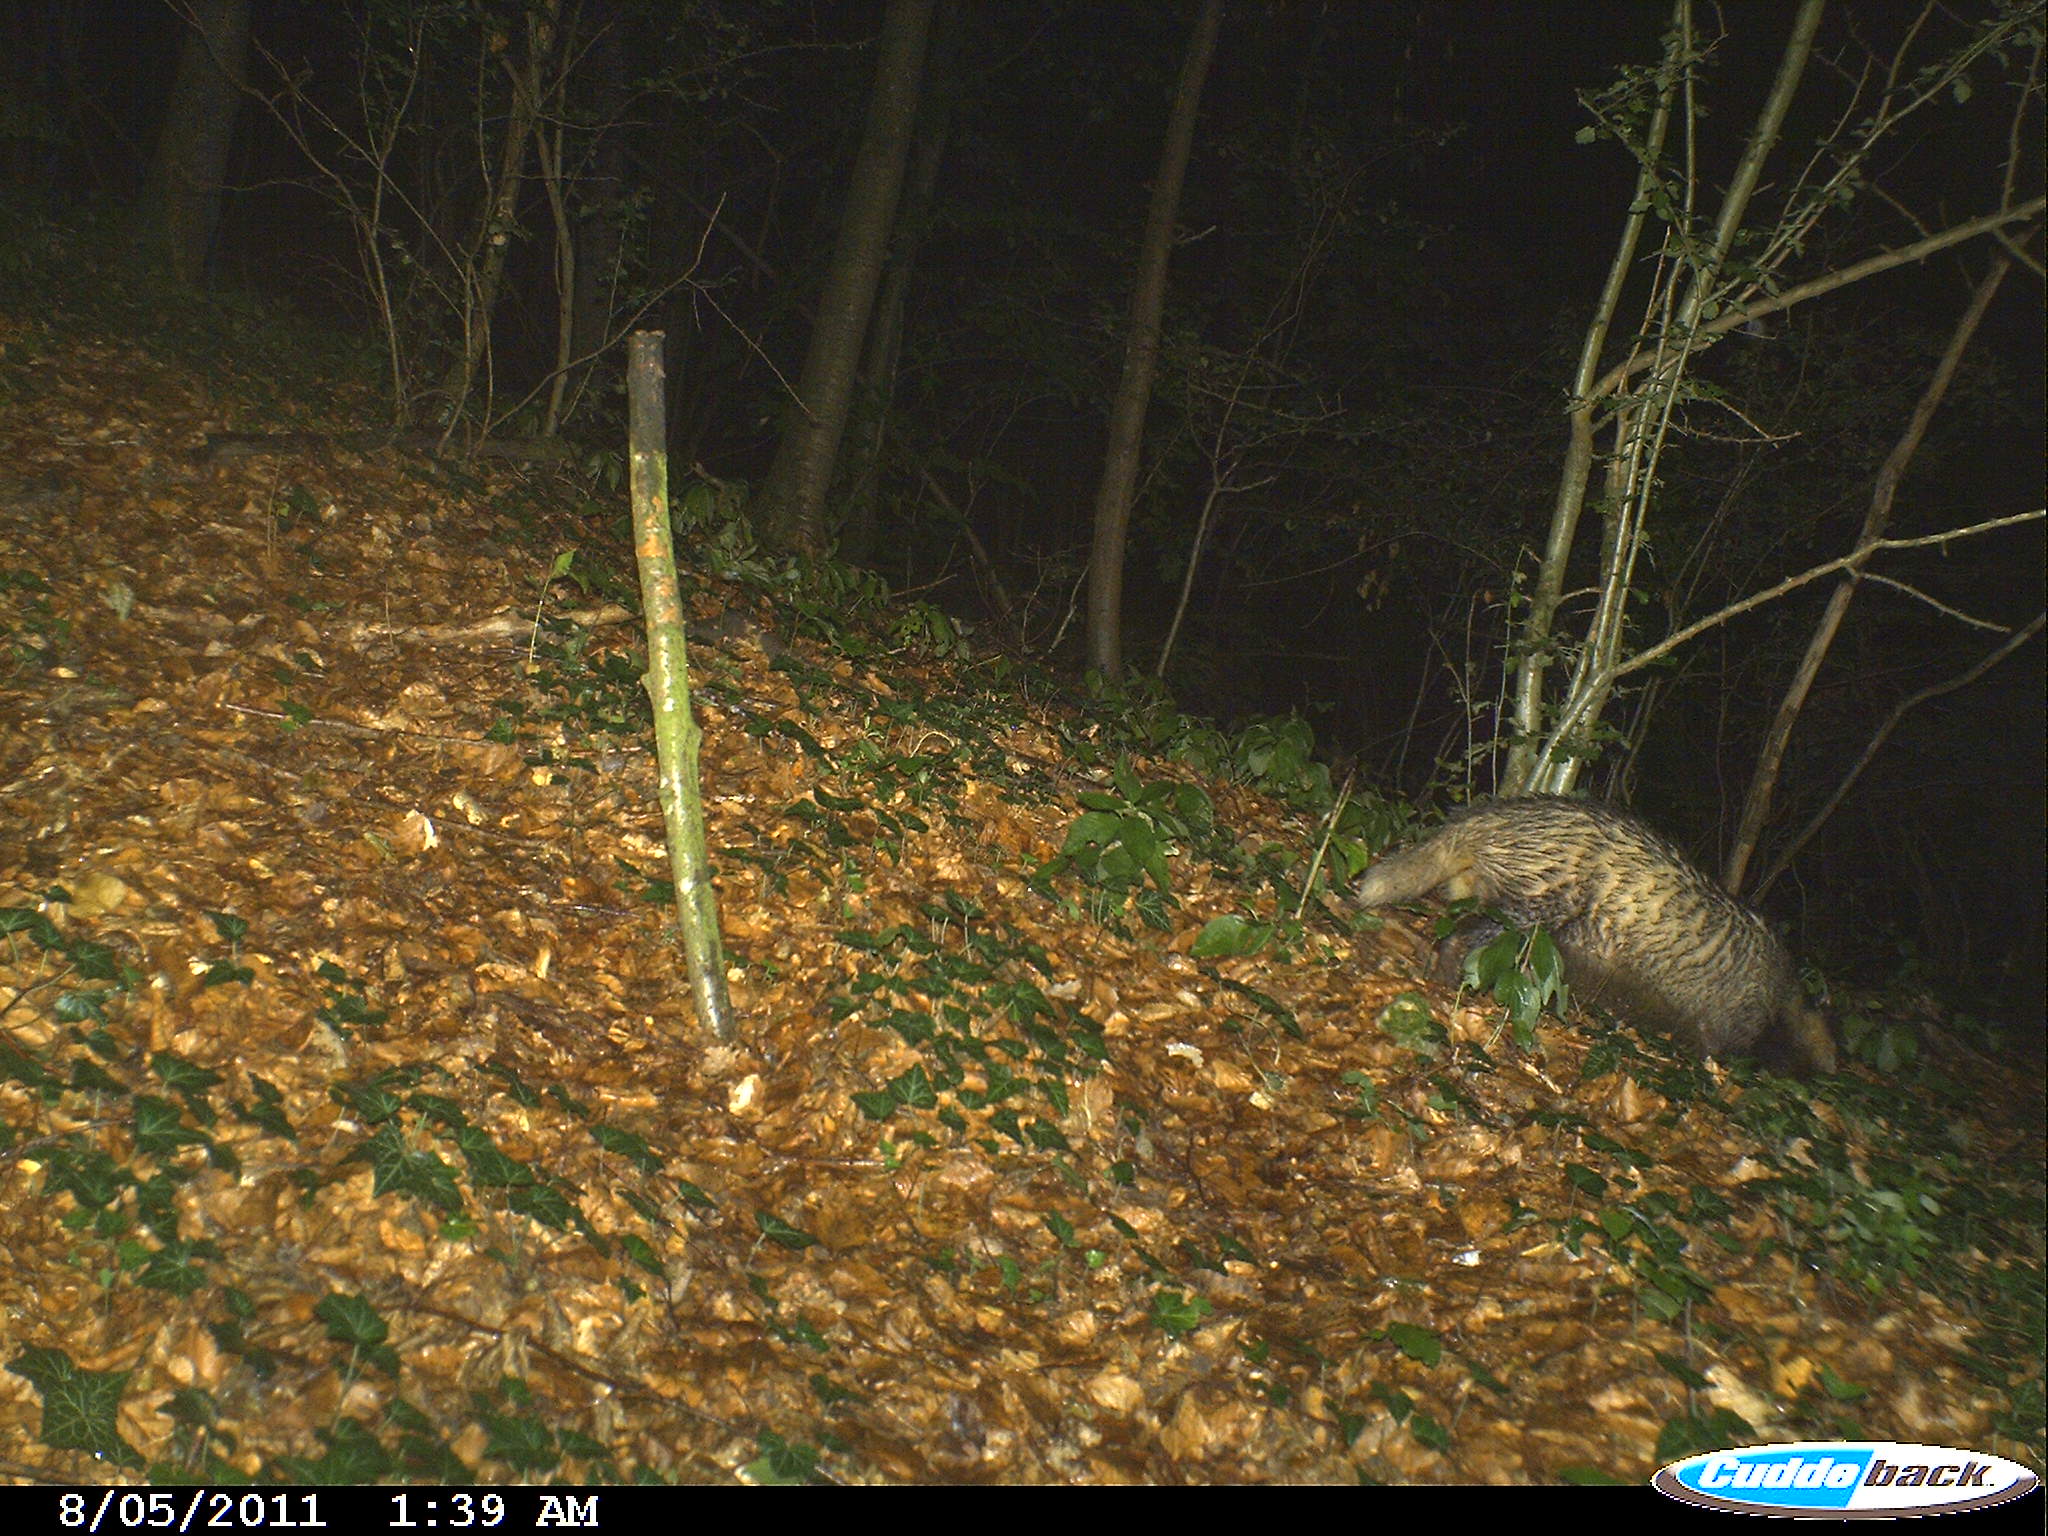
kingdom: Animalia
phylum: Chordata
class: Mammalia
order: Carnivora
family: Mustelidae
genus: Meles
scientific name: Meles meles
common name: Eurasian badger
